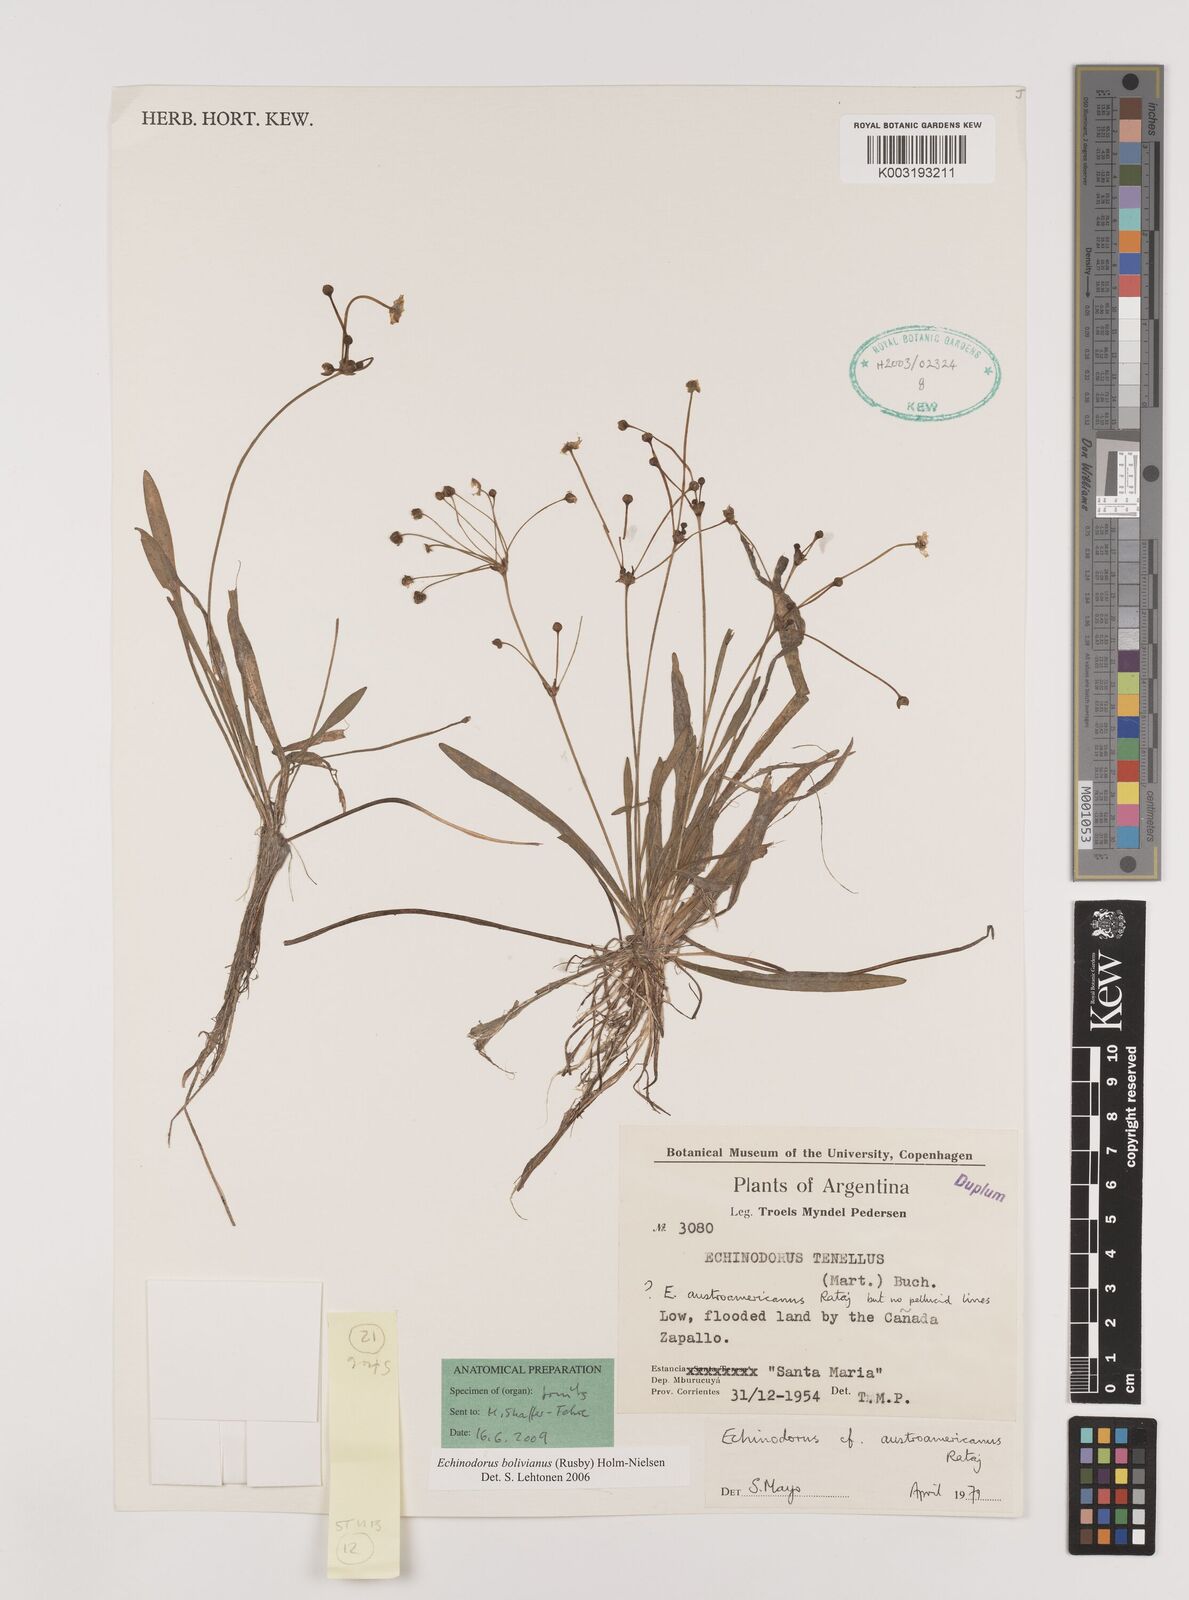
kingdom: Plantae
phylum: Tracheophyta
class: Liliopsida
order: Alismatales
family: Alismataceae
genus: Helanthium
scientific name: Helanthium bolivianum
